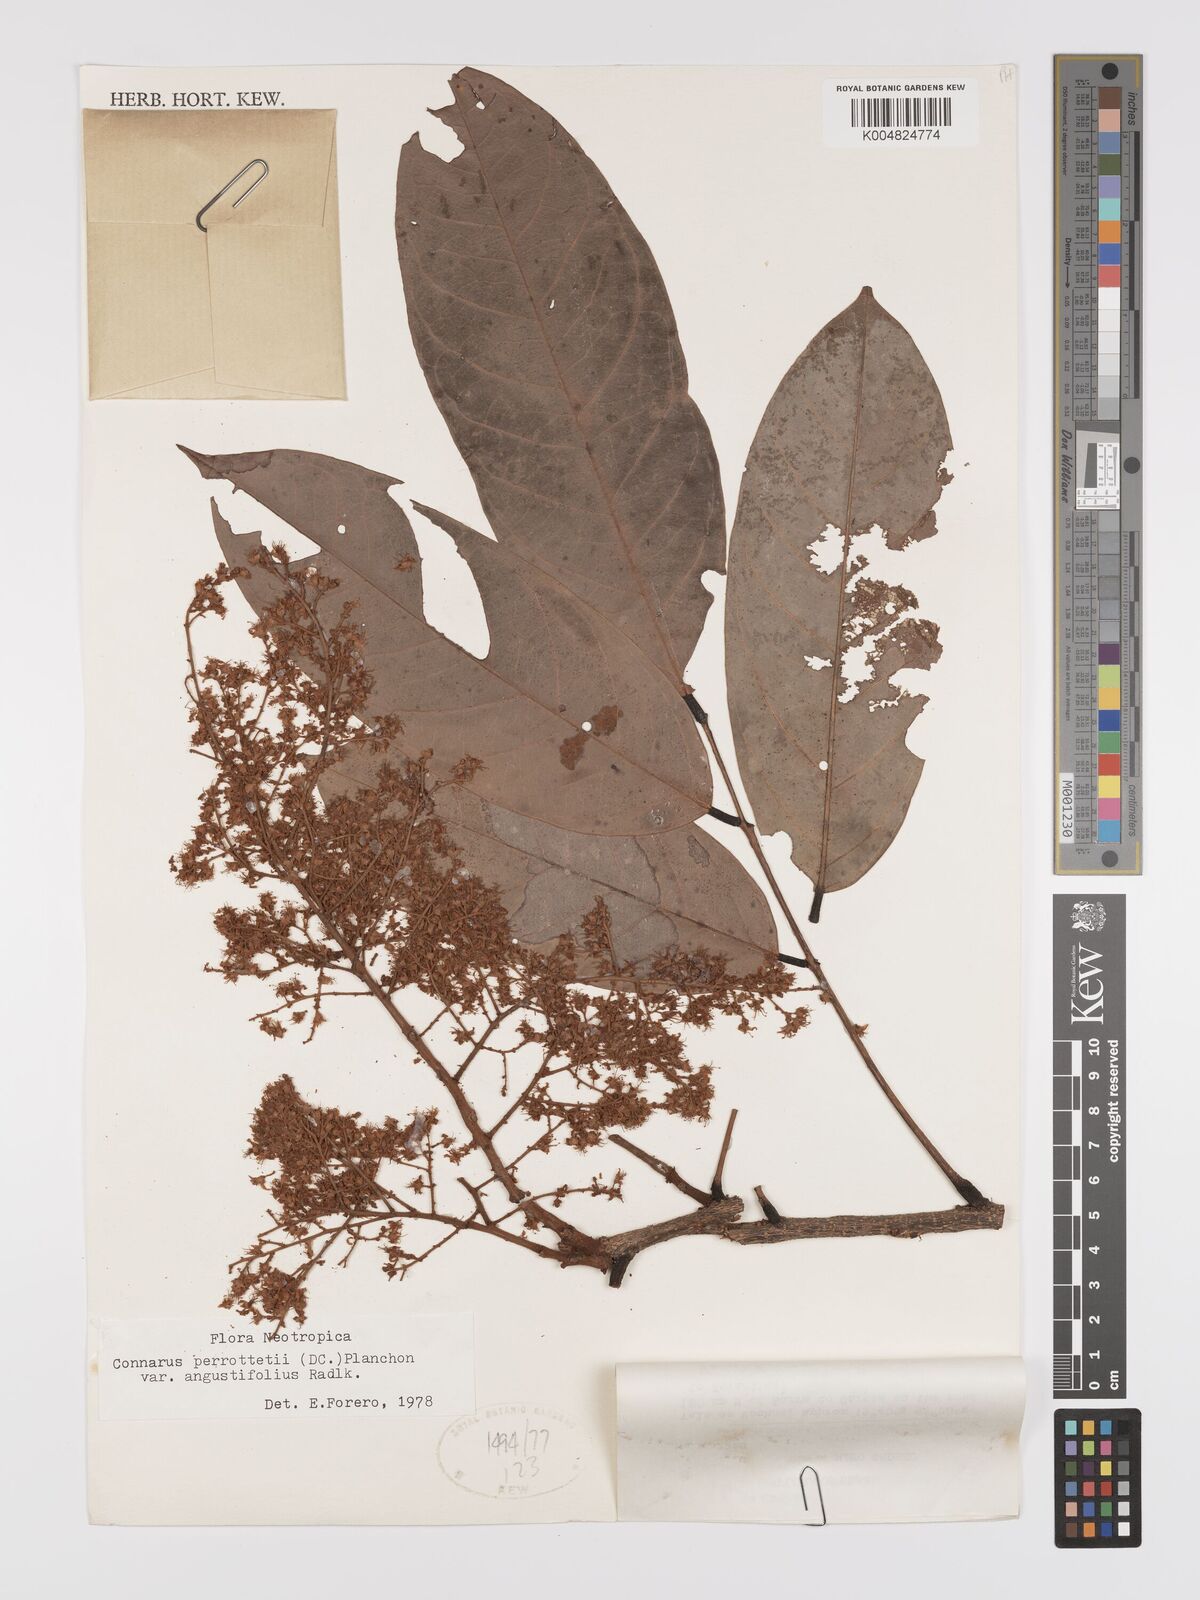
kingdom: Plantae
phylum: Tracheophyta
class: Magnoliopsida
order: Oxalidales
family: Connaraceae
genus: Connarus
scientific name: Connarus perrottetii
